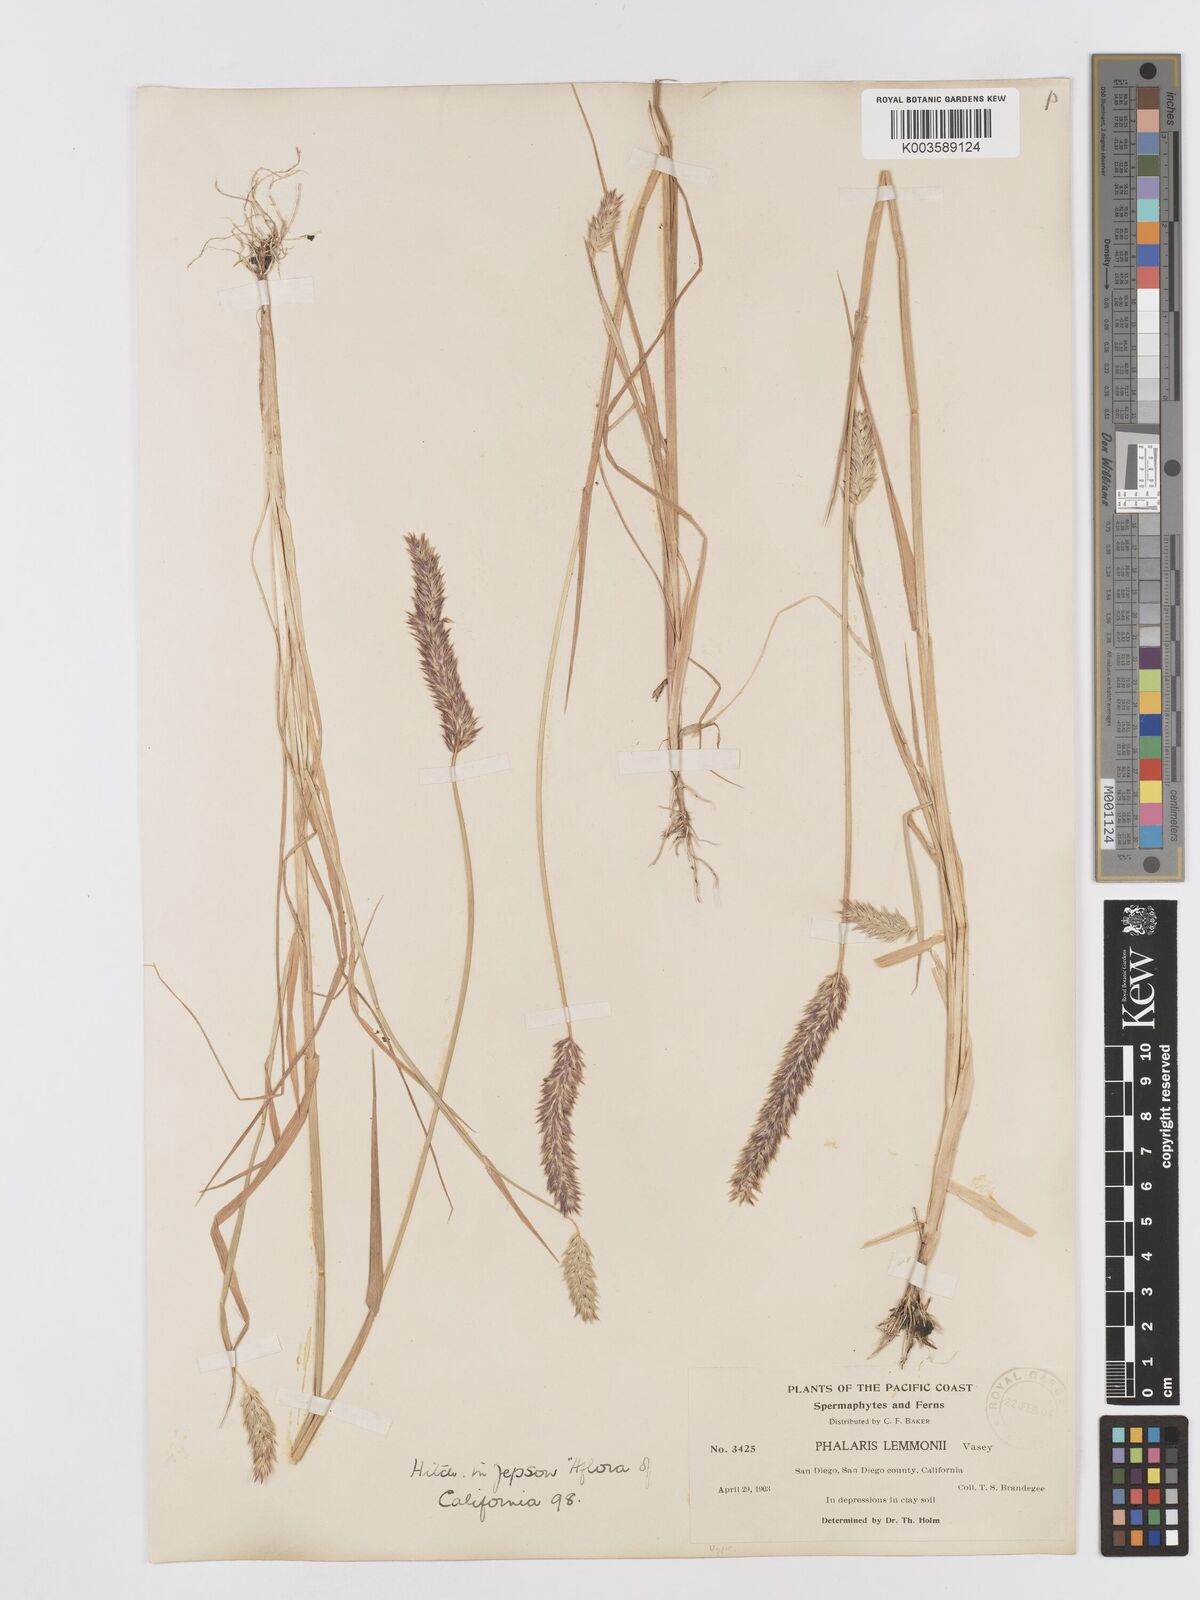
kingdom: Plantae
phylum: Tracheophyta
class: Liliopsida
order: Poales
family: Poaceae
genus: Phalaris
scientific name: Phalaris lemmonii
